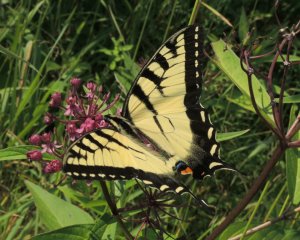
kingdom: Animalia
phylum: Arthropoda
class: Insecta
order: Lepidoptera
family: Papilionidae
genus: Pterourus
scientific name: Pterourus glaucus
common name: Eastern Tiger Swallowtail
